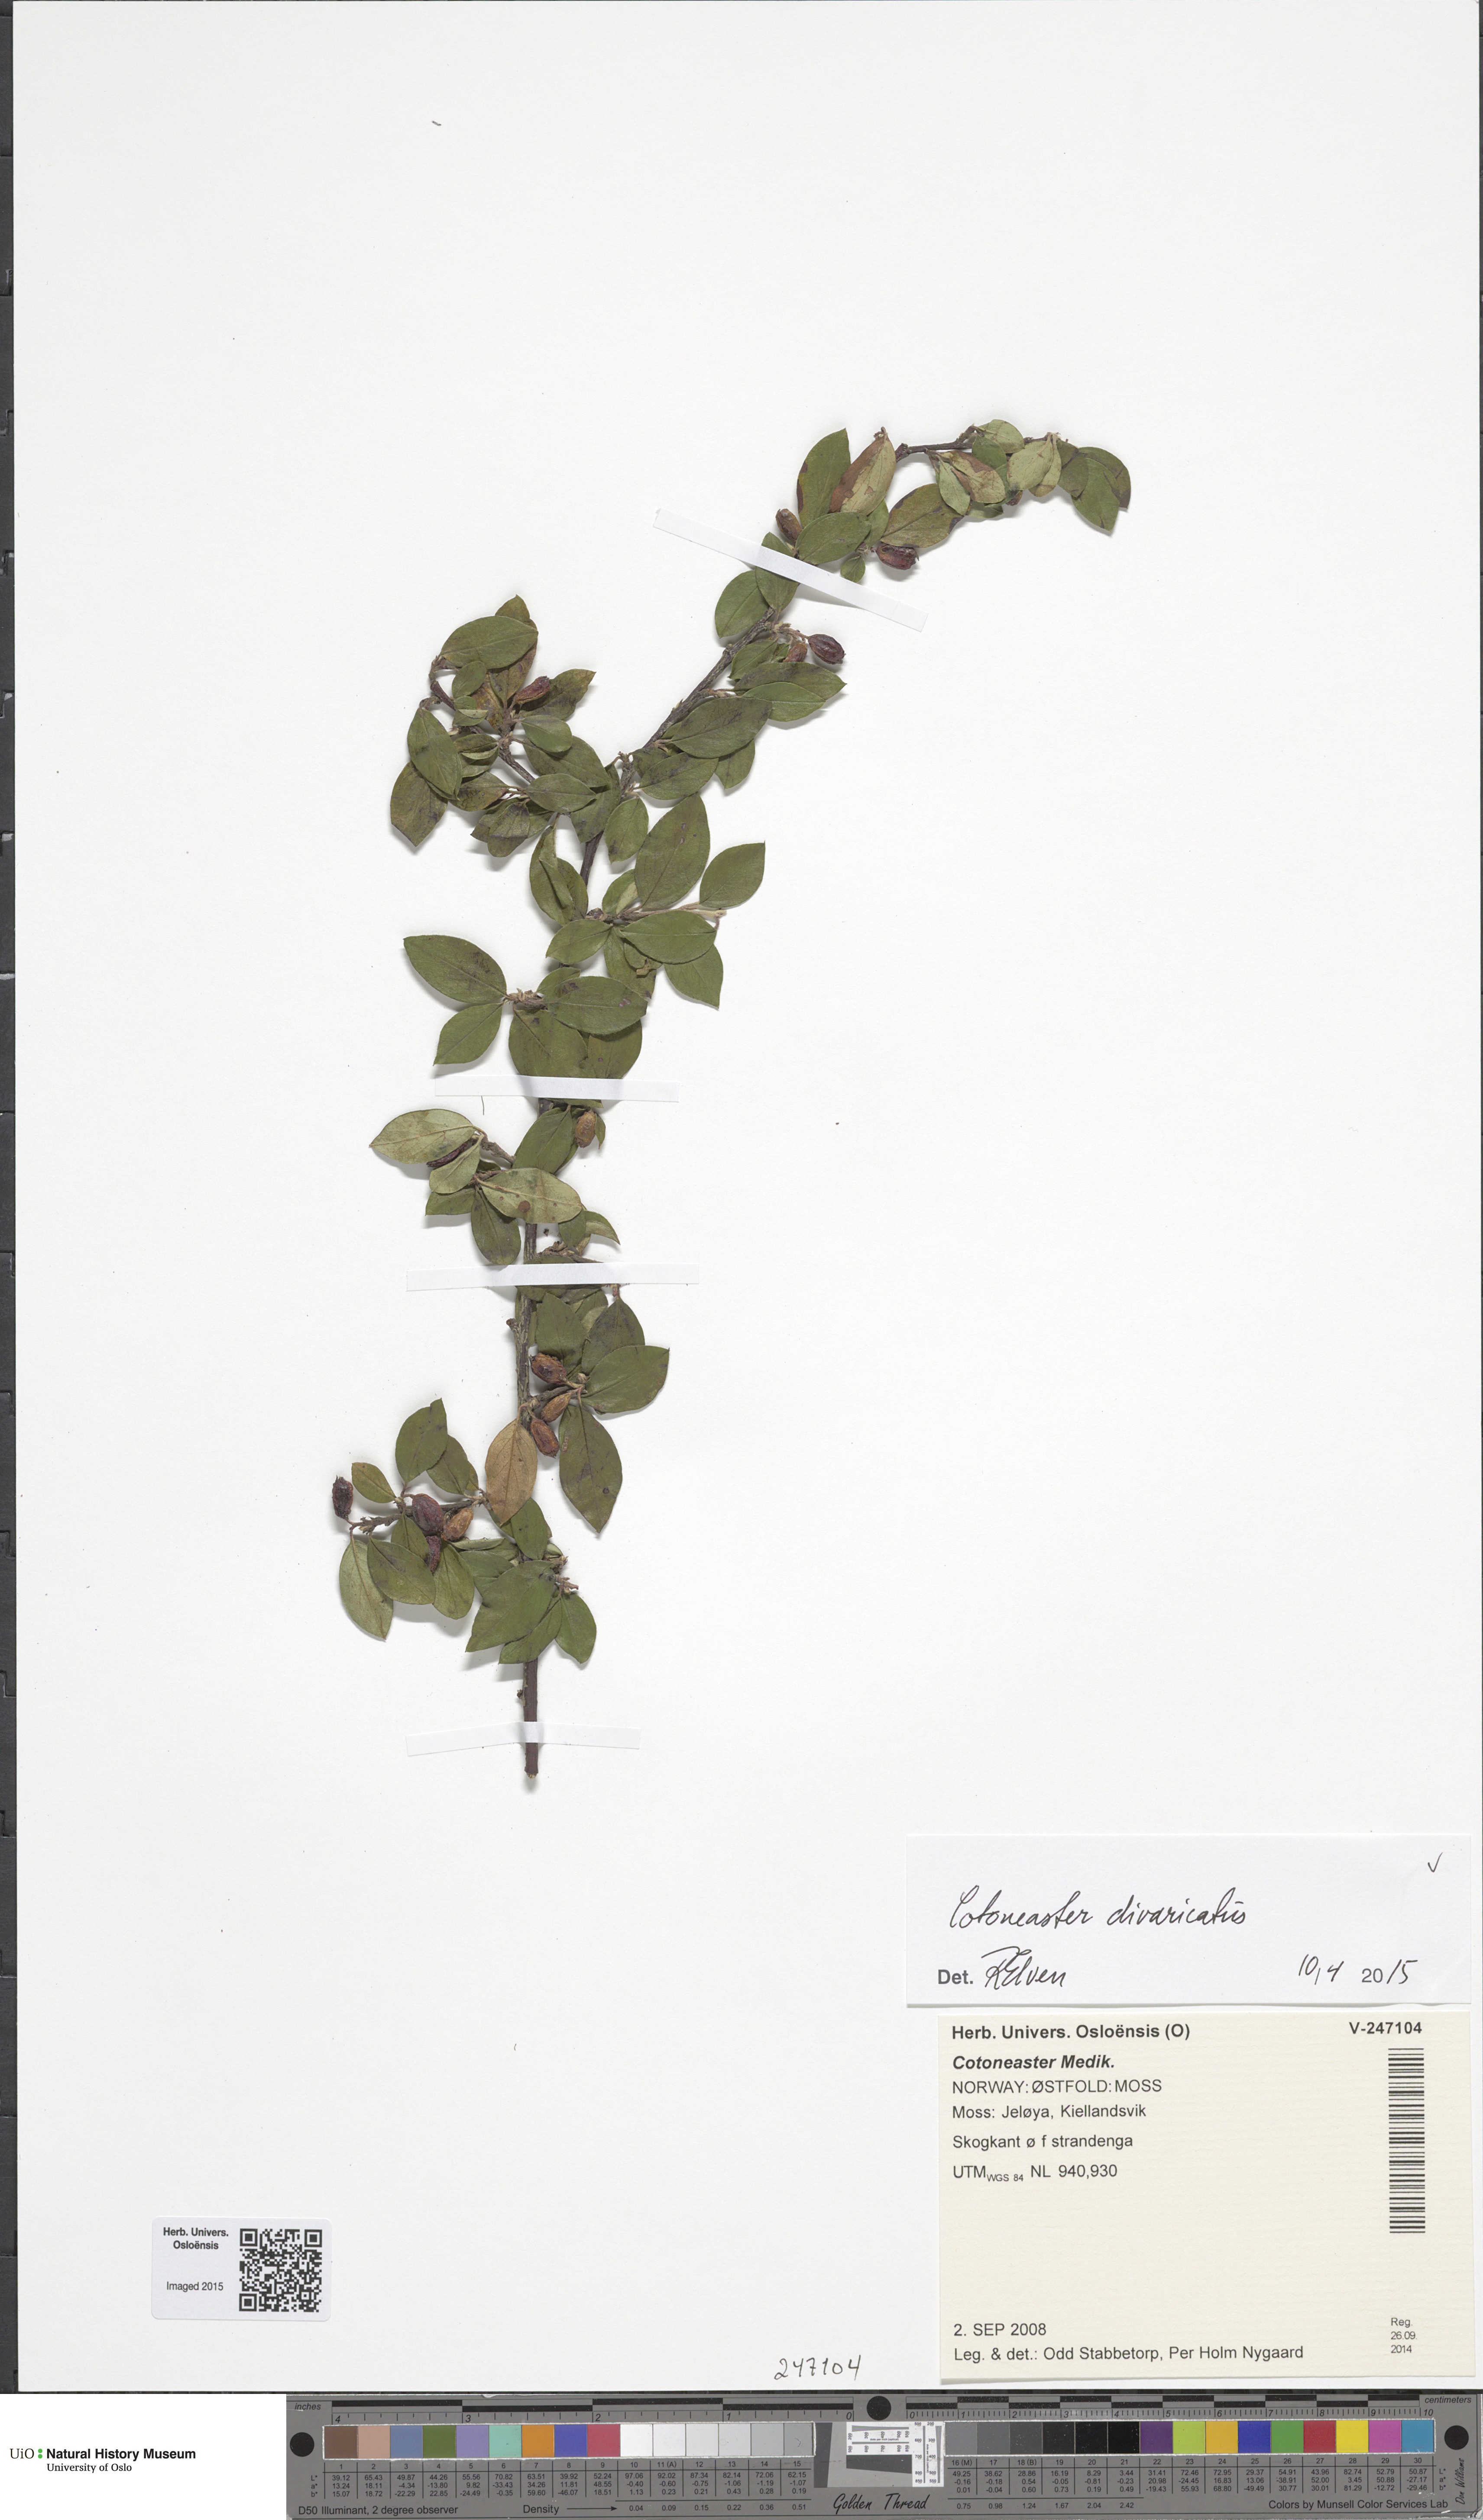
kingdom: Plantae
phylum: Tracheophyta
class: Magnoliopsida
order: Rosales
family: Rosaceae
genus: Cotoneaster
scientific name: Cotoneaster divaricatus
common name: Spreading cotoneaster
